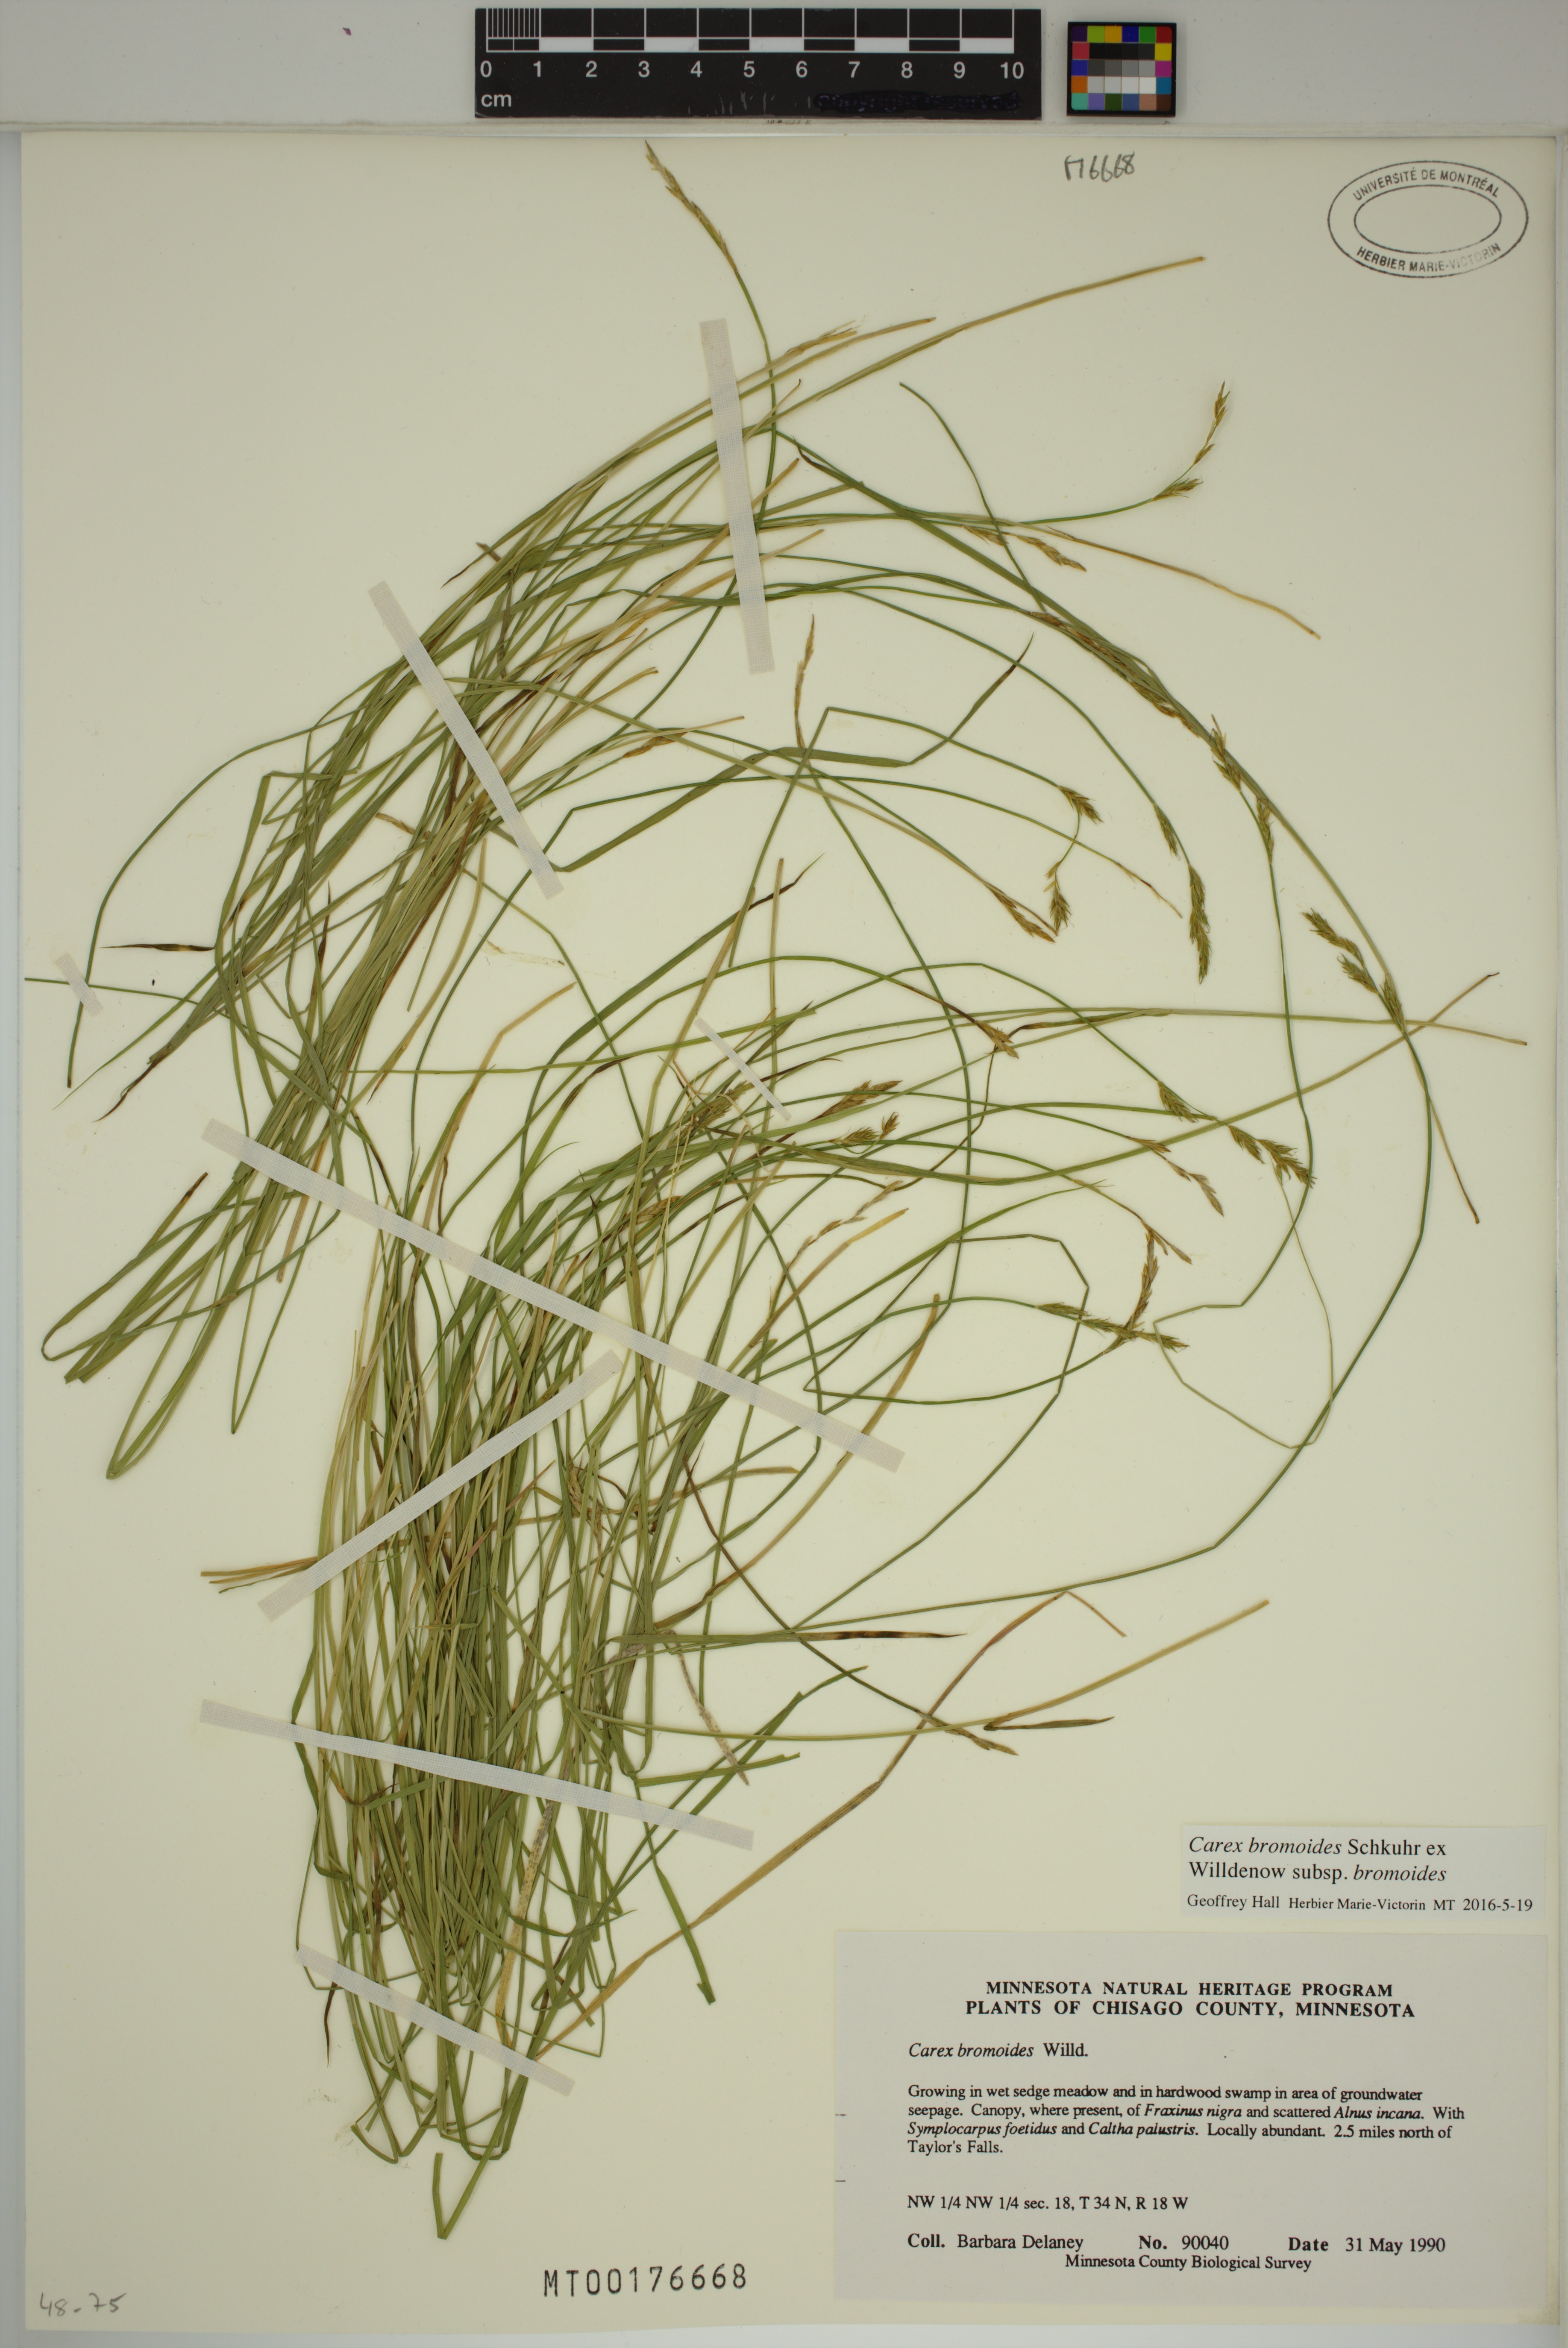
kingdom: Plantae
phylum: Tracheophyta
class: Liliopsida
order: Poales
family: Cyperaceae
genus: Carex
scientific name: Carex bromoides
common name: Brome hummock sedge
